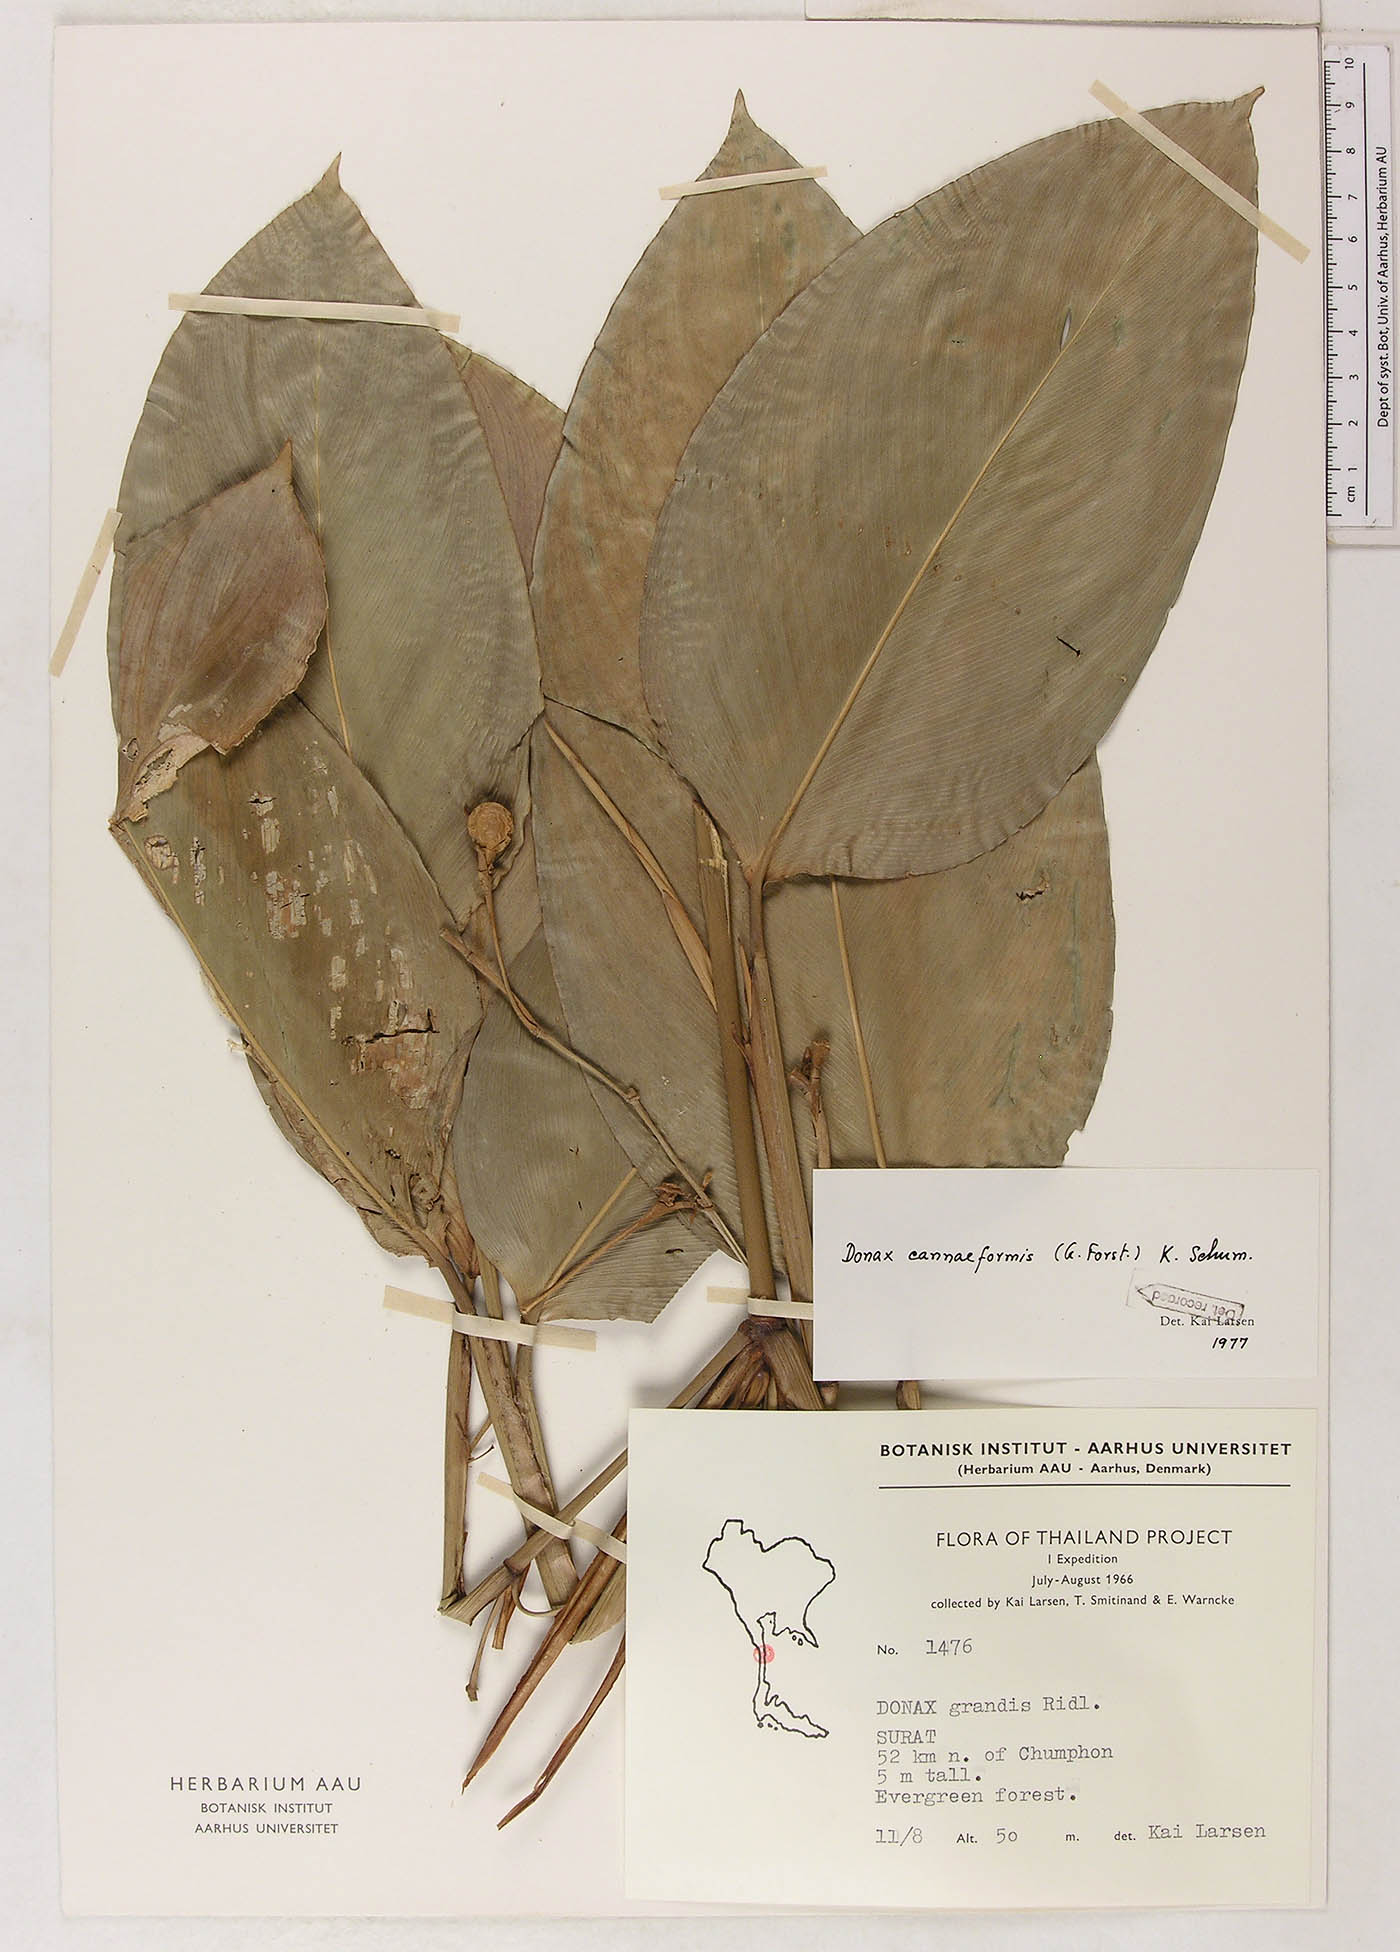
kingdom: Plantae
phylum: Tracheophyta
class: Liliopsida
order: Zingiberales
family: Marantaceae
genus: Donax
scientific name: Donax canniformis
